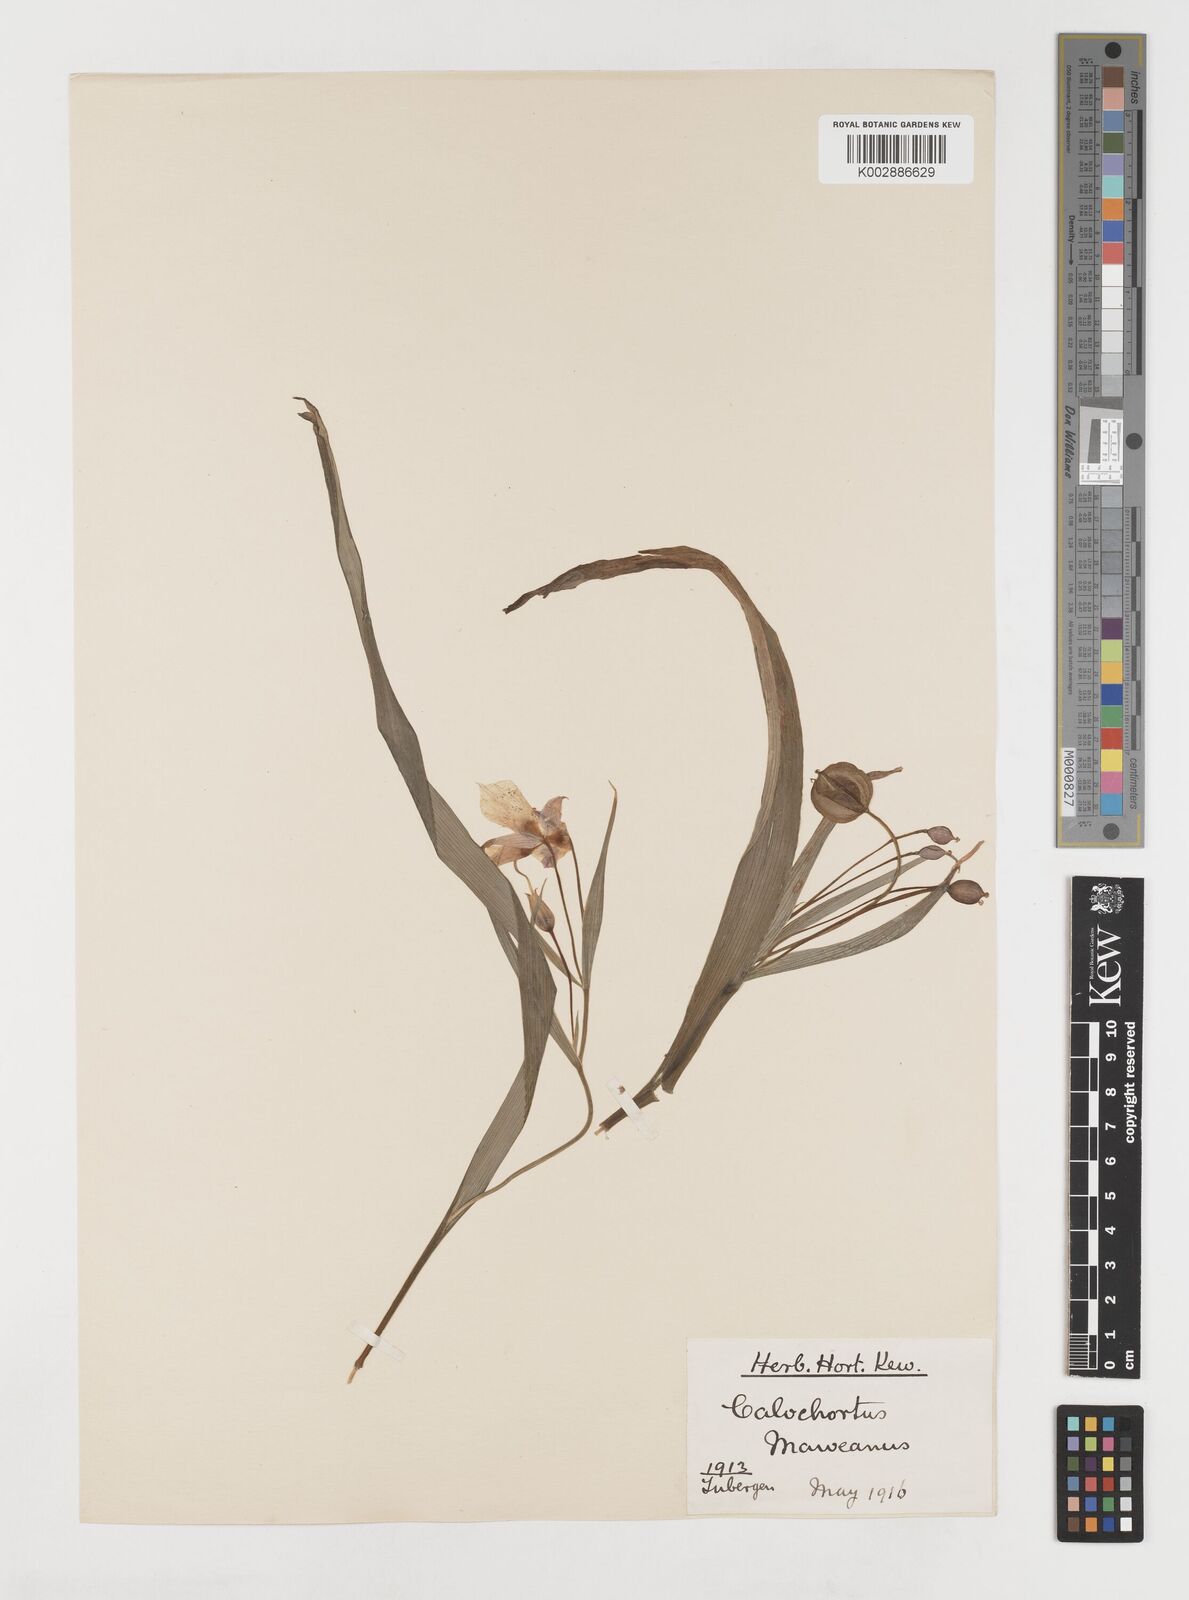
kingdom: Plantae
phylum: Tracheophyta
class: Liliopsida
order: Liliales
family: Liliaceae
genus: Calochortus
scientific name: Calochortus coeruleus
